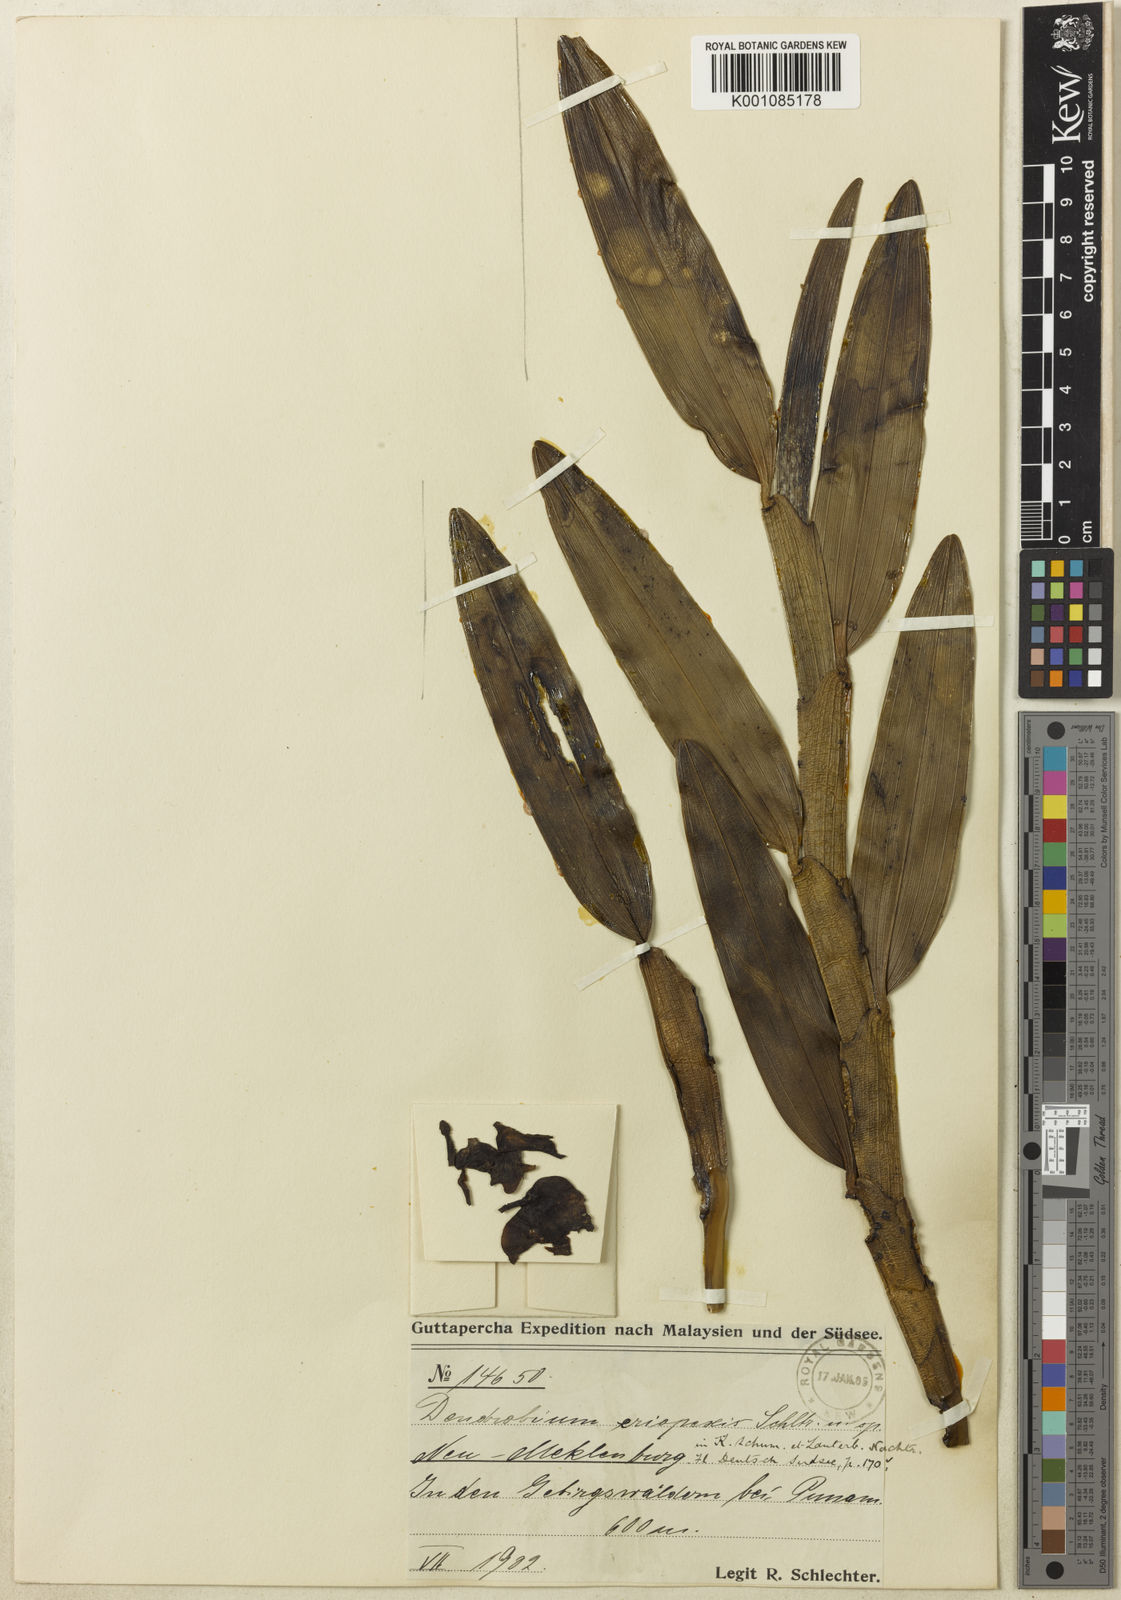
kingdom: Plantae
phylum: Tracheophyta
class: Liliopsida
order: Asparagales
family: Orchidaceae
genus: Dendrobium
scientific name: Dendrobium eriopexis
